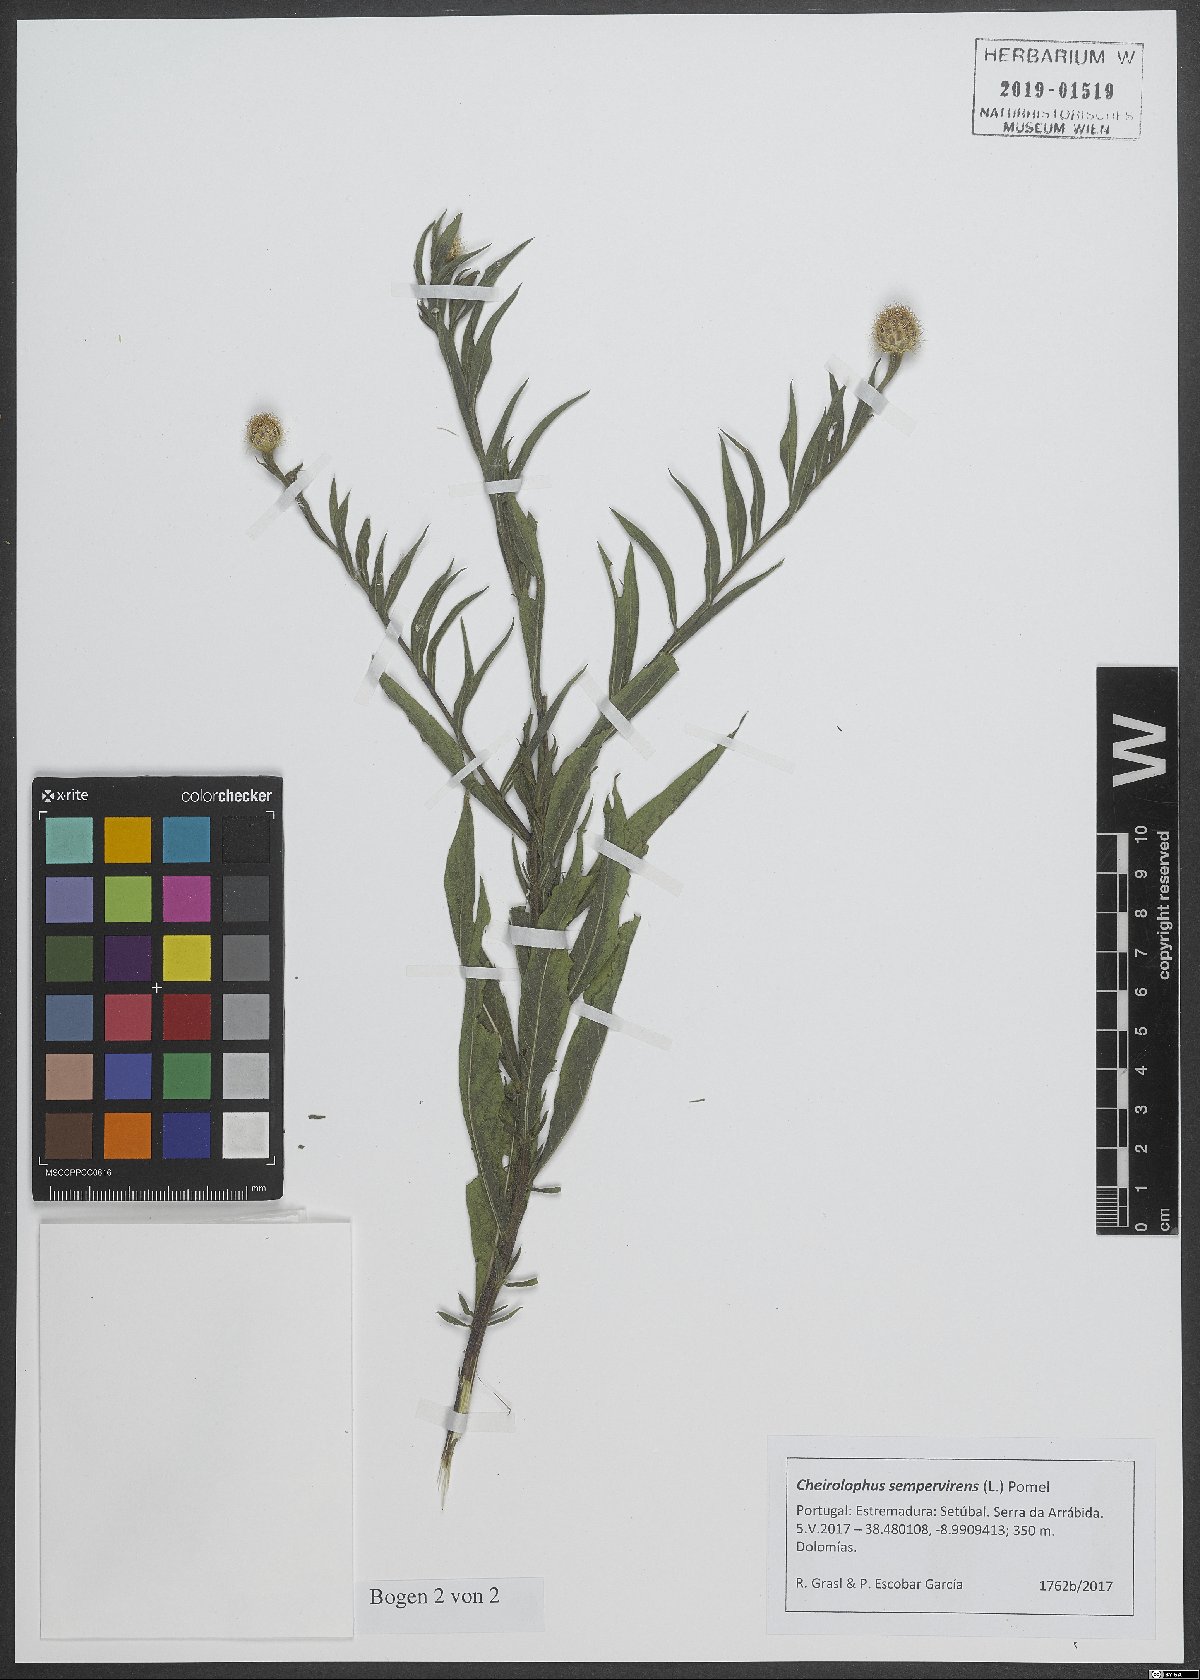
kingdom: Plantae
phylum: Tracheophyta
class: Magnoliopsida
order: Asterales
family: Asteraceae
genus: Cheirolophus
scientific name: Cheirolophus sempervirens
